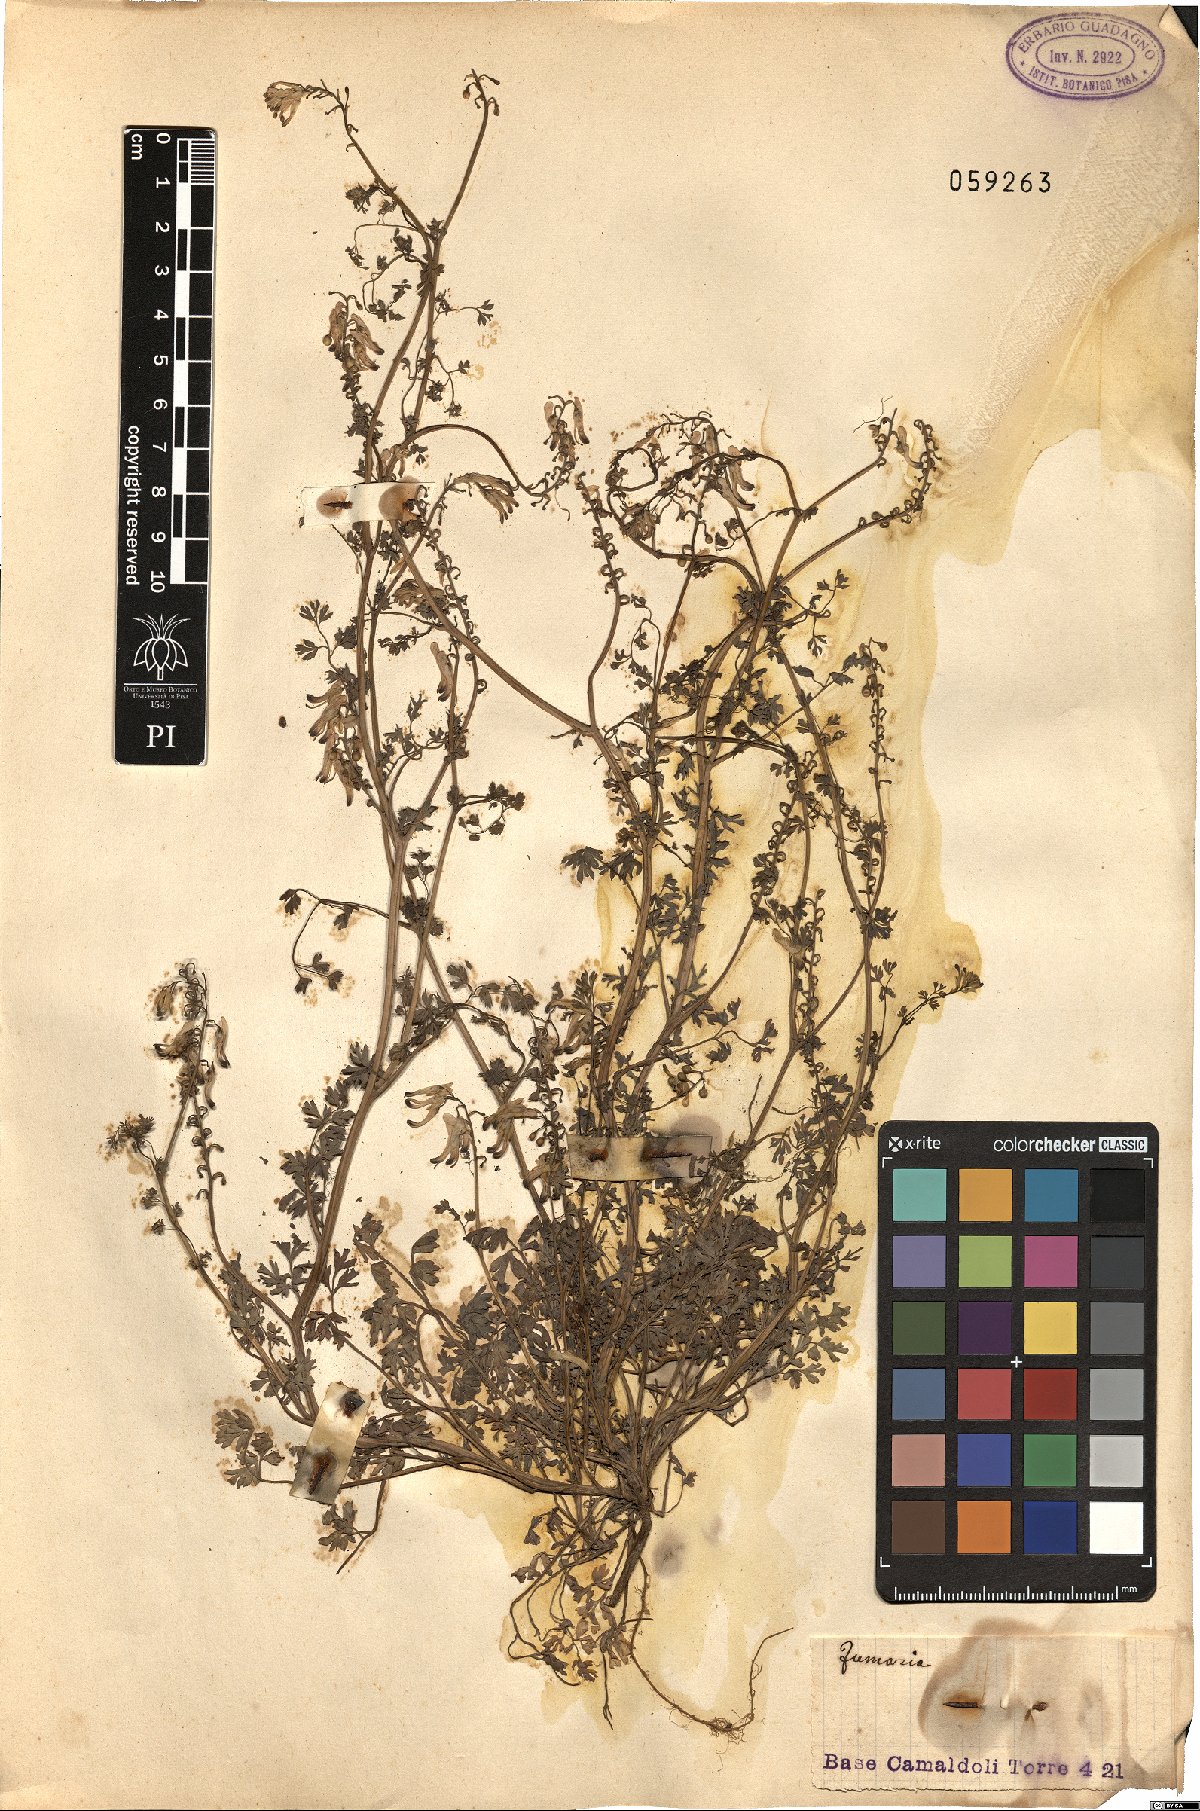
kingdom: Plantae
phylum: Tracheophyta
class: Magnoliopsida
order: Ranunculales
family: Papaveraceae
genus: Fumaria
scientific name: Fumaria
